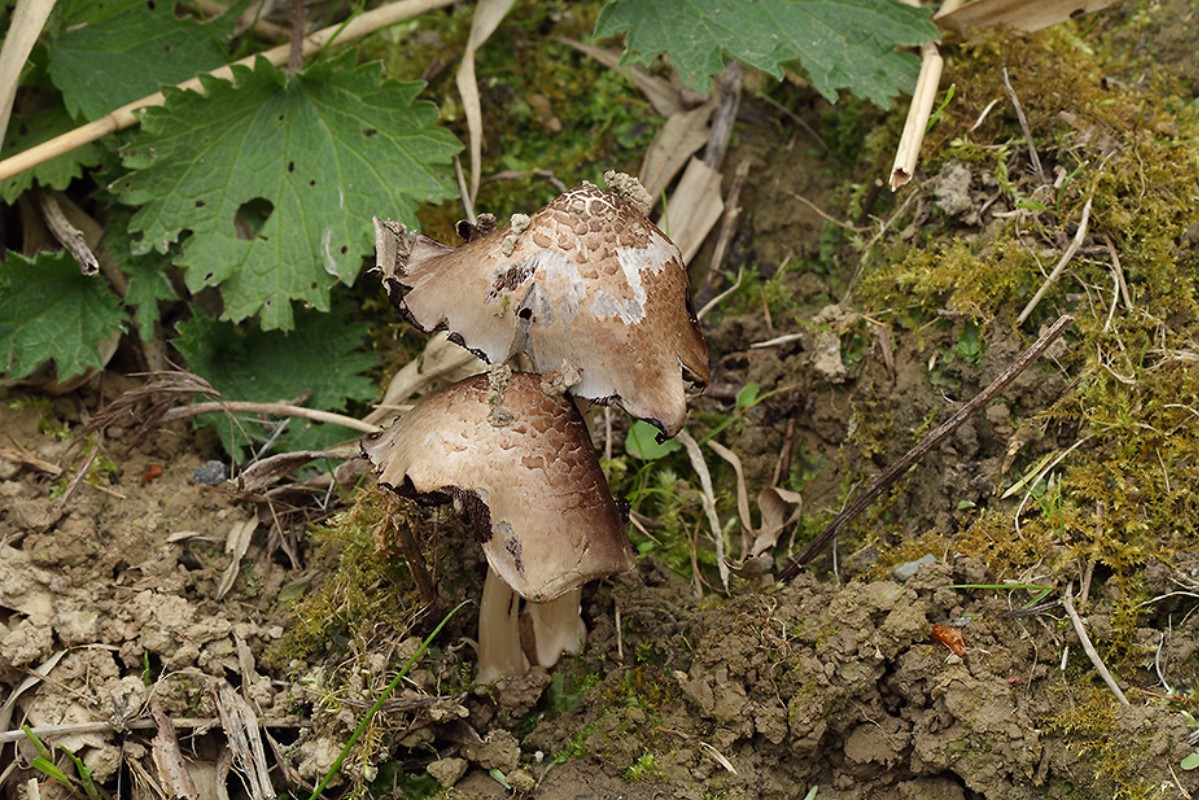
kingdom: Fungi
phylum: Basidiomycota
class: Agaricomycetes
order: Agaricales
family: Psathyrellaceae
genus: Coprinopsis
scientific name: Coprinopsis romagnesiana
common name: brunskællet blækhat
